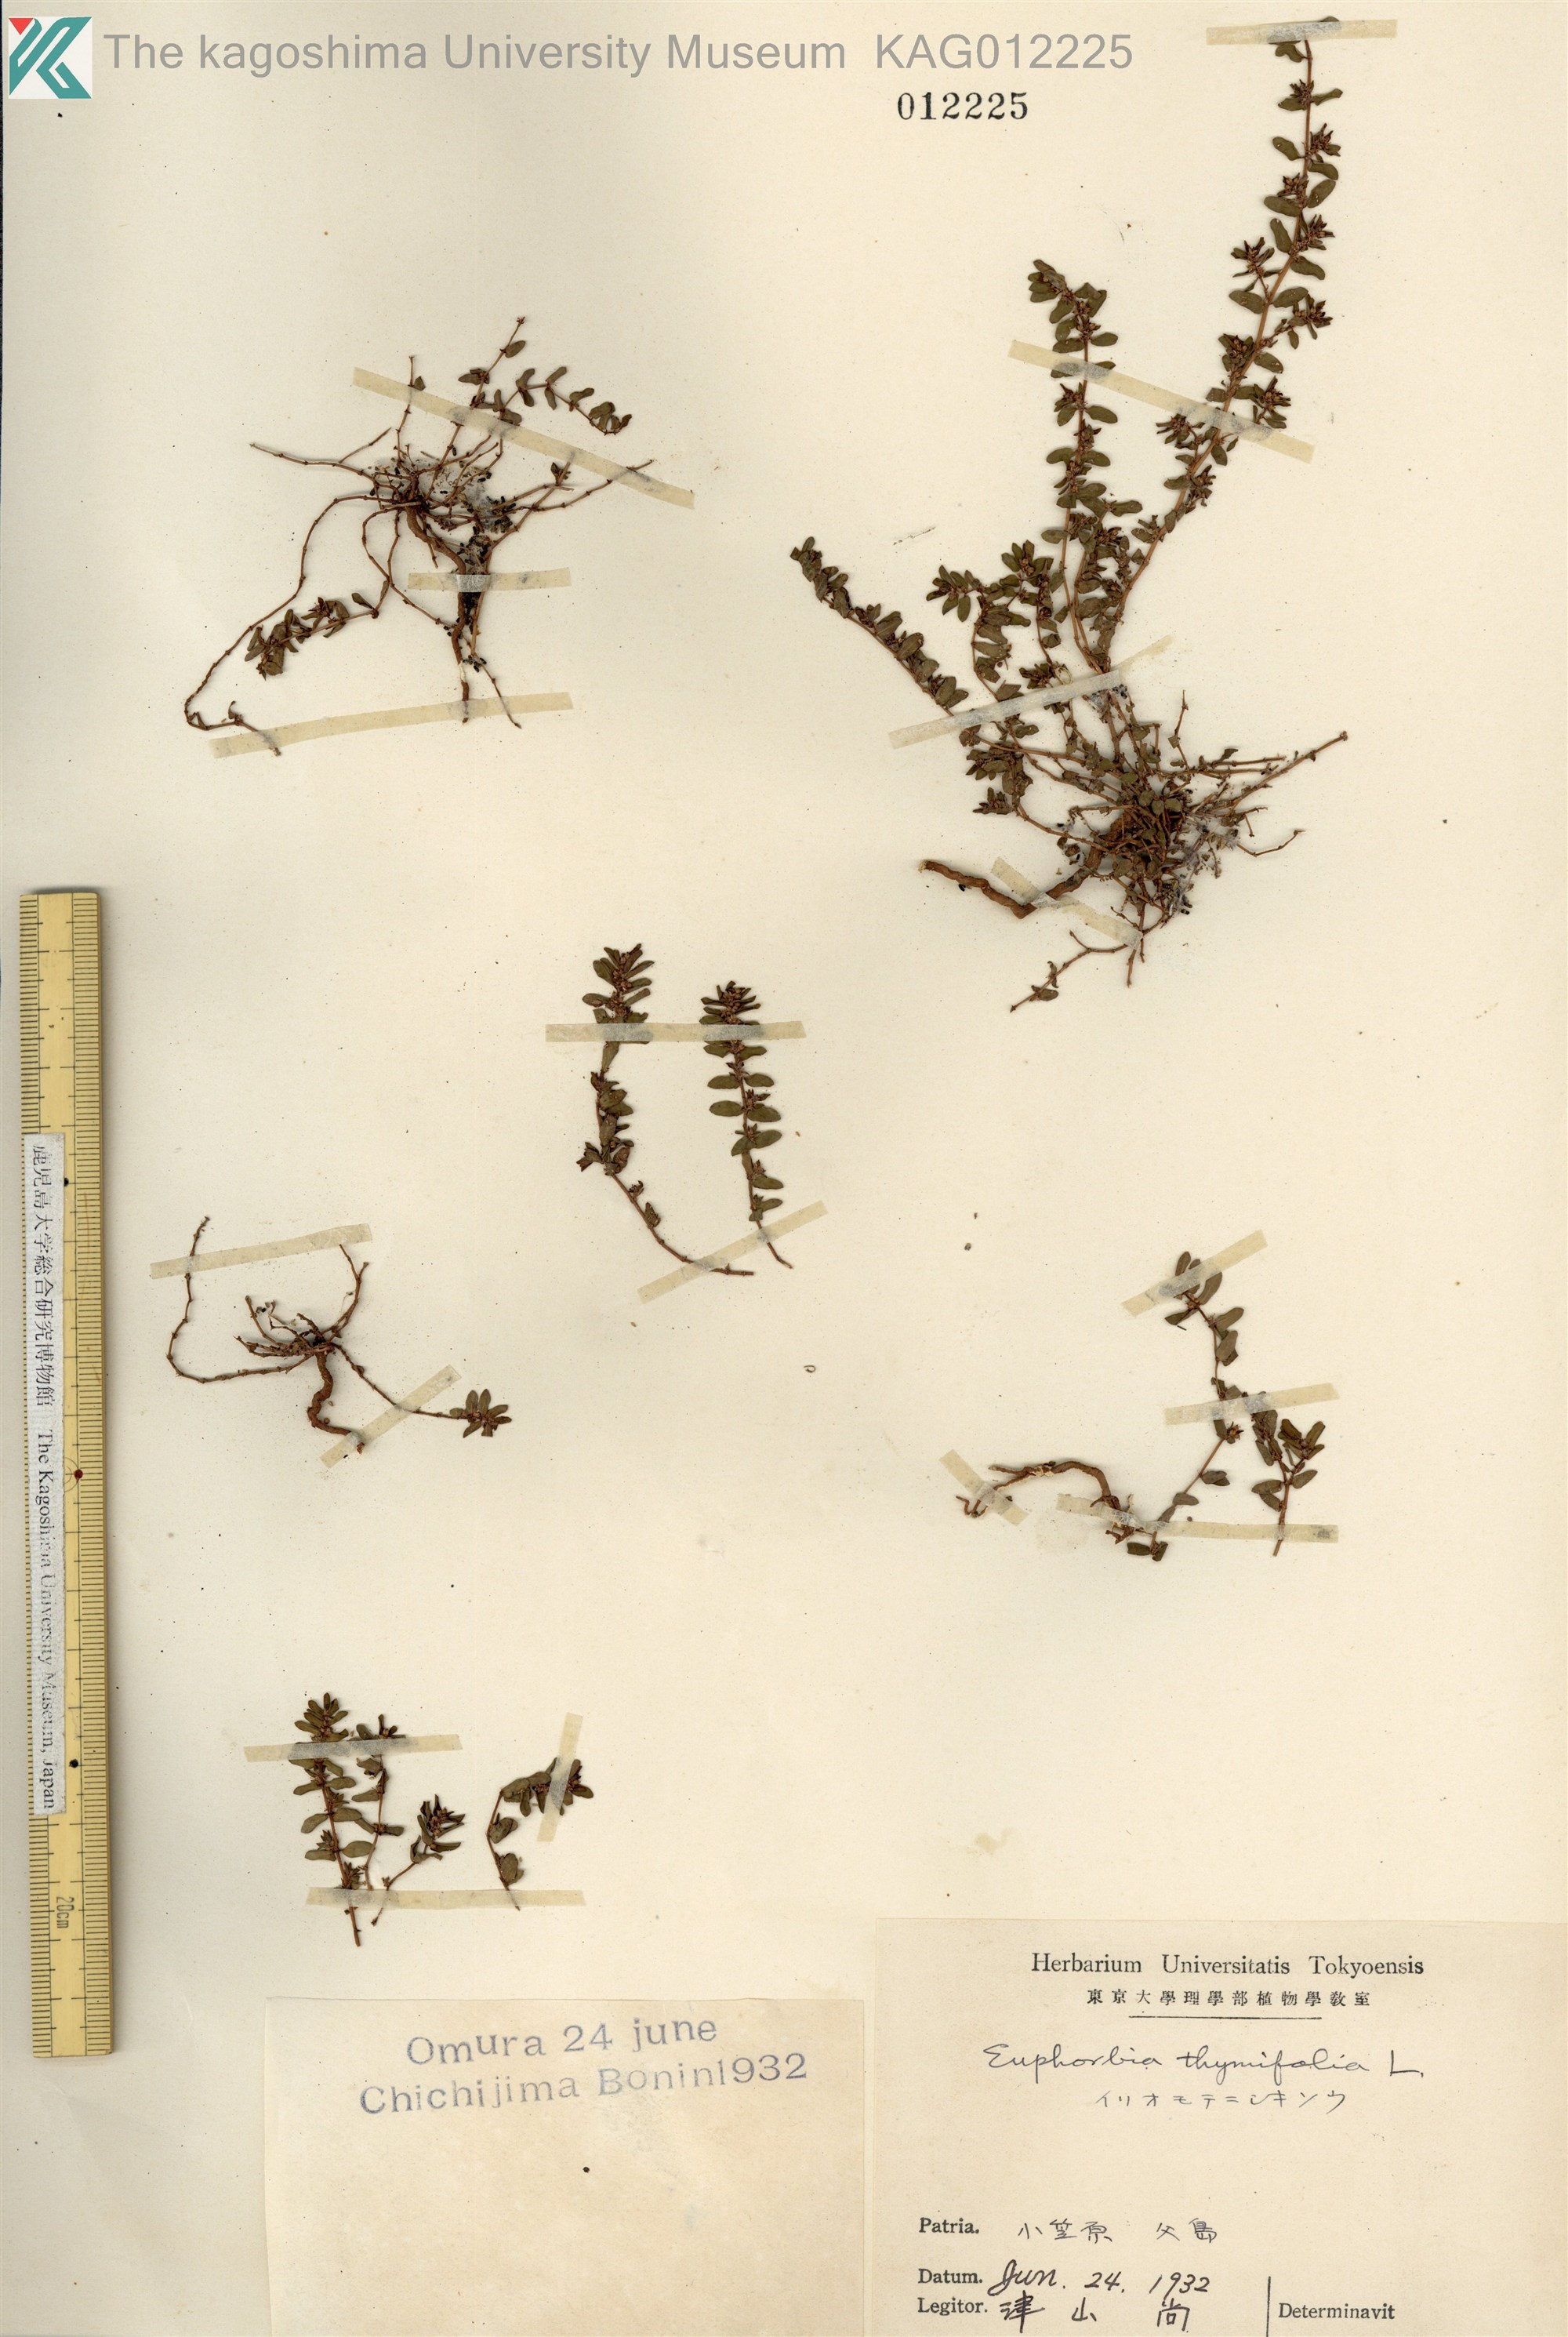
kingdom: Plantae
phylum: Tracheophyta
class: Magnoliopsida
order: Malpighiales
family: Euphorbiaceae
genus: Euphorbia
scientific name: Euphorbia thymifolia
